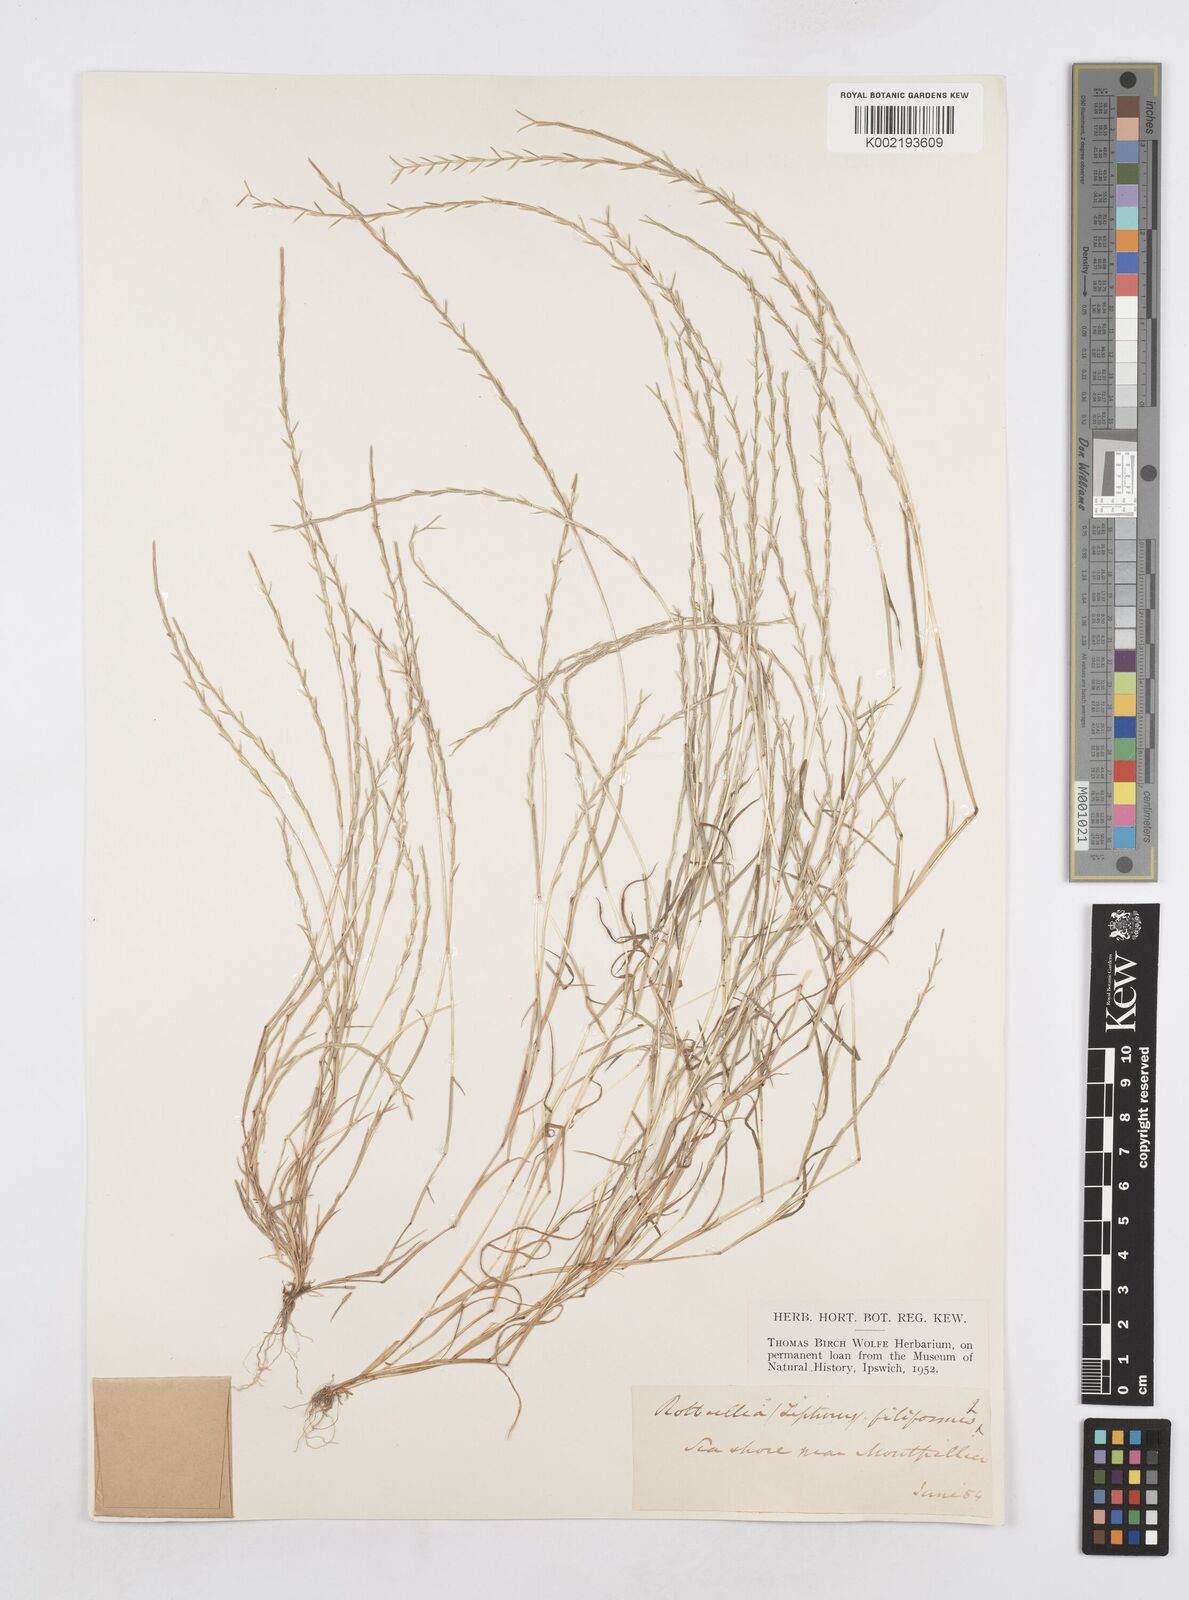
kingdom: Plantae
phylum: Tracheophyta
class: Liliopsida
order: Poales
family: Poaceae
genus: Parapholis
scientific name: Parapholis filiformis
